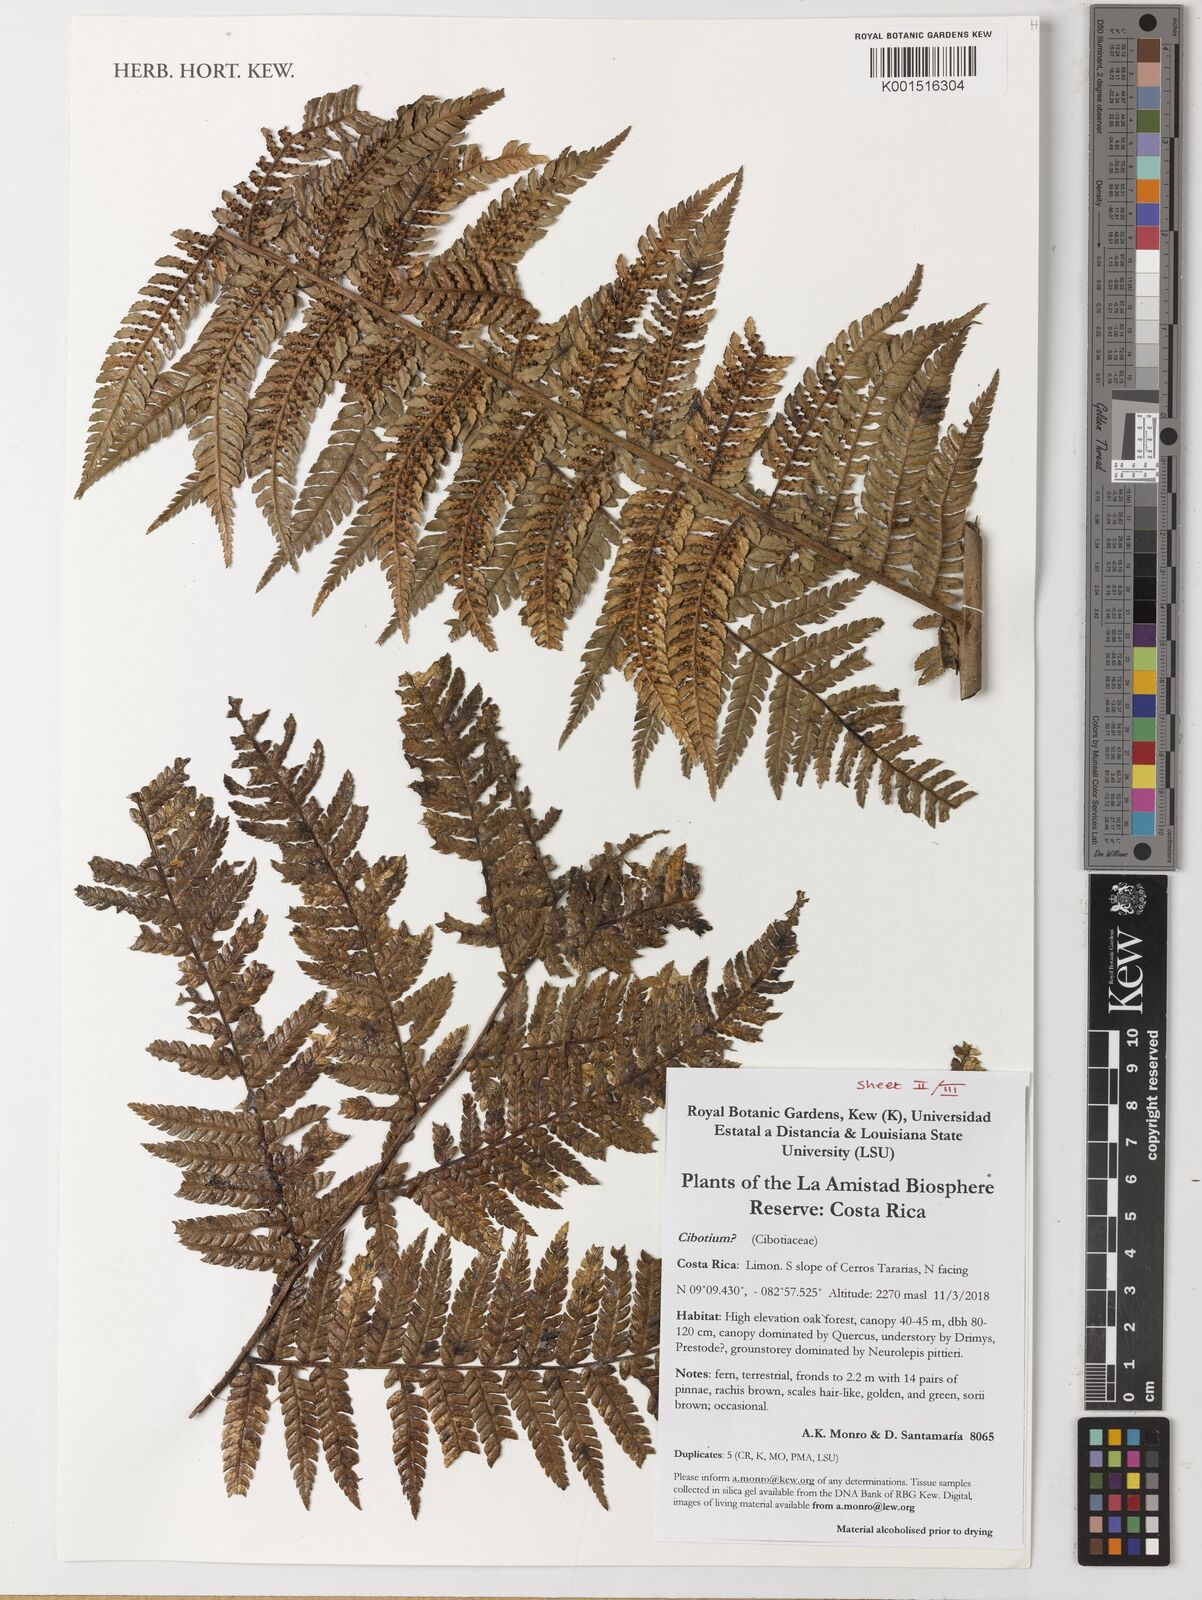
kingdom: Plantae
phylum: Tracheophyta
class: Polypodiopsida
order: Cyatheales
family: Cibotiaceae
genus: Cibotium
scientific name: Cibotium
